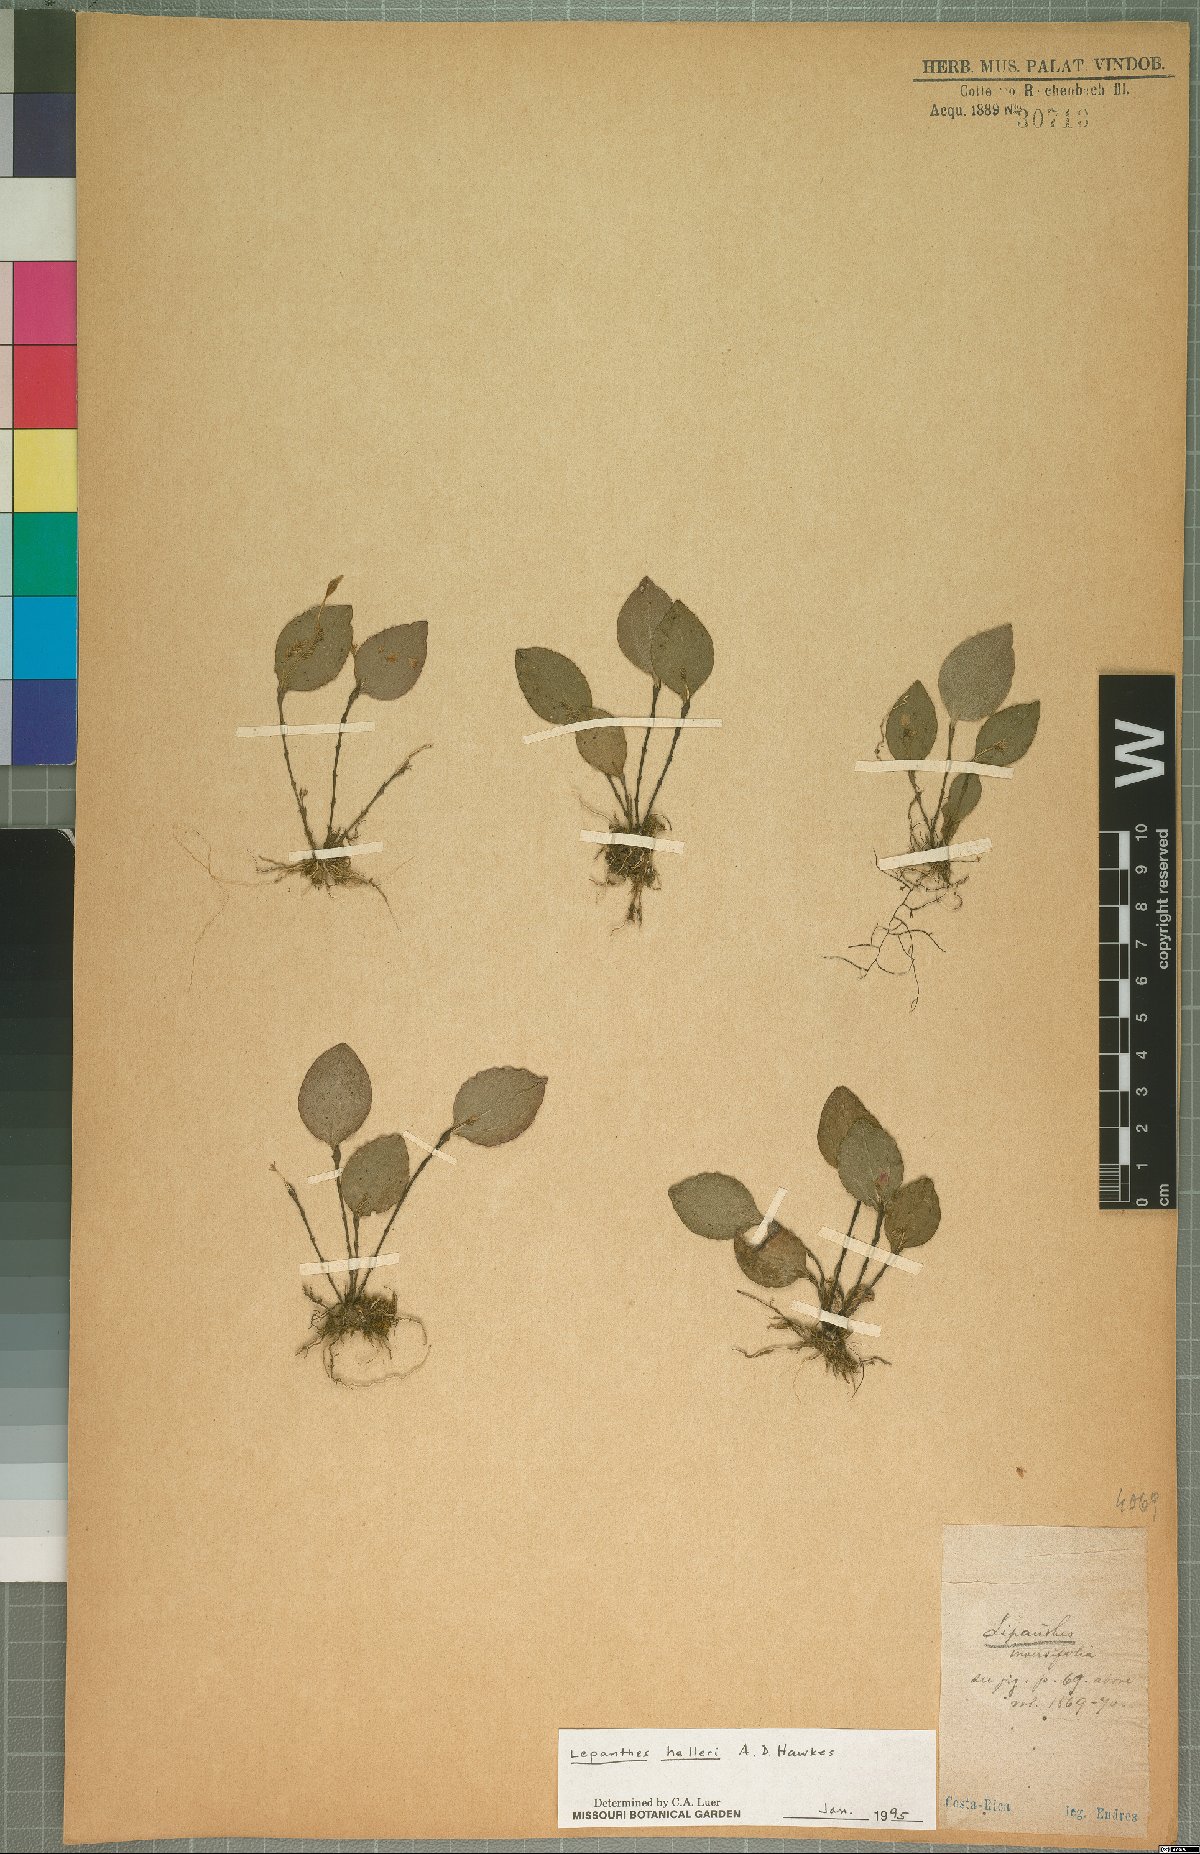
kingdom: Plantae
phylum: Tracheophyta
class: Liliopsida
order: Asparagales
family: Orchidaceae
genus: Lepanthes
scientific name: Lepanthes helleri
